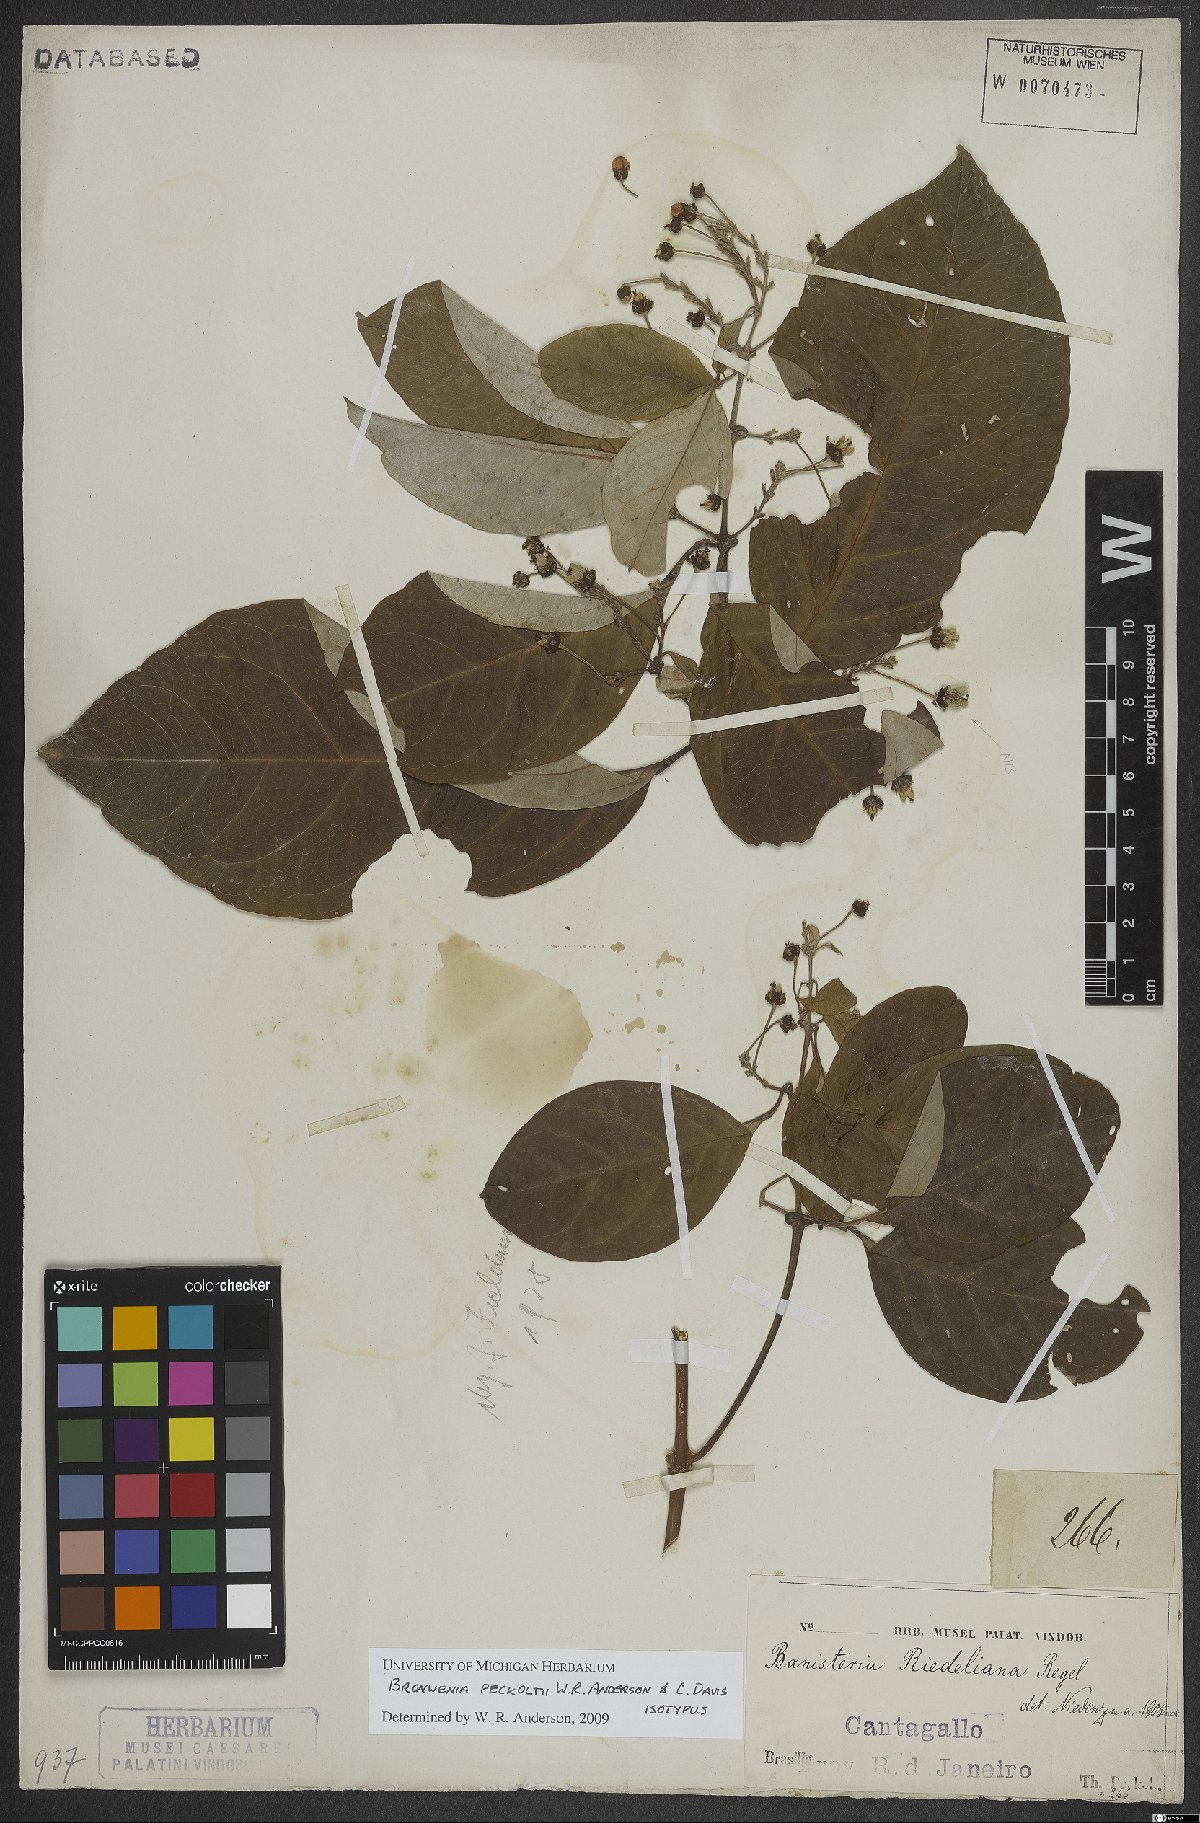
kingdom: Plantae
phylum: Tracheophyta
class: Magnoliopsida
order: Malpighiales
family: Malpighiaceae
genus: Bronwenia
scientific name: Bronwenia peckoltii
